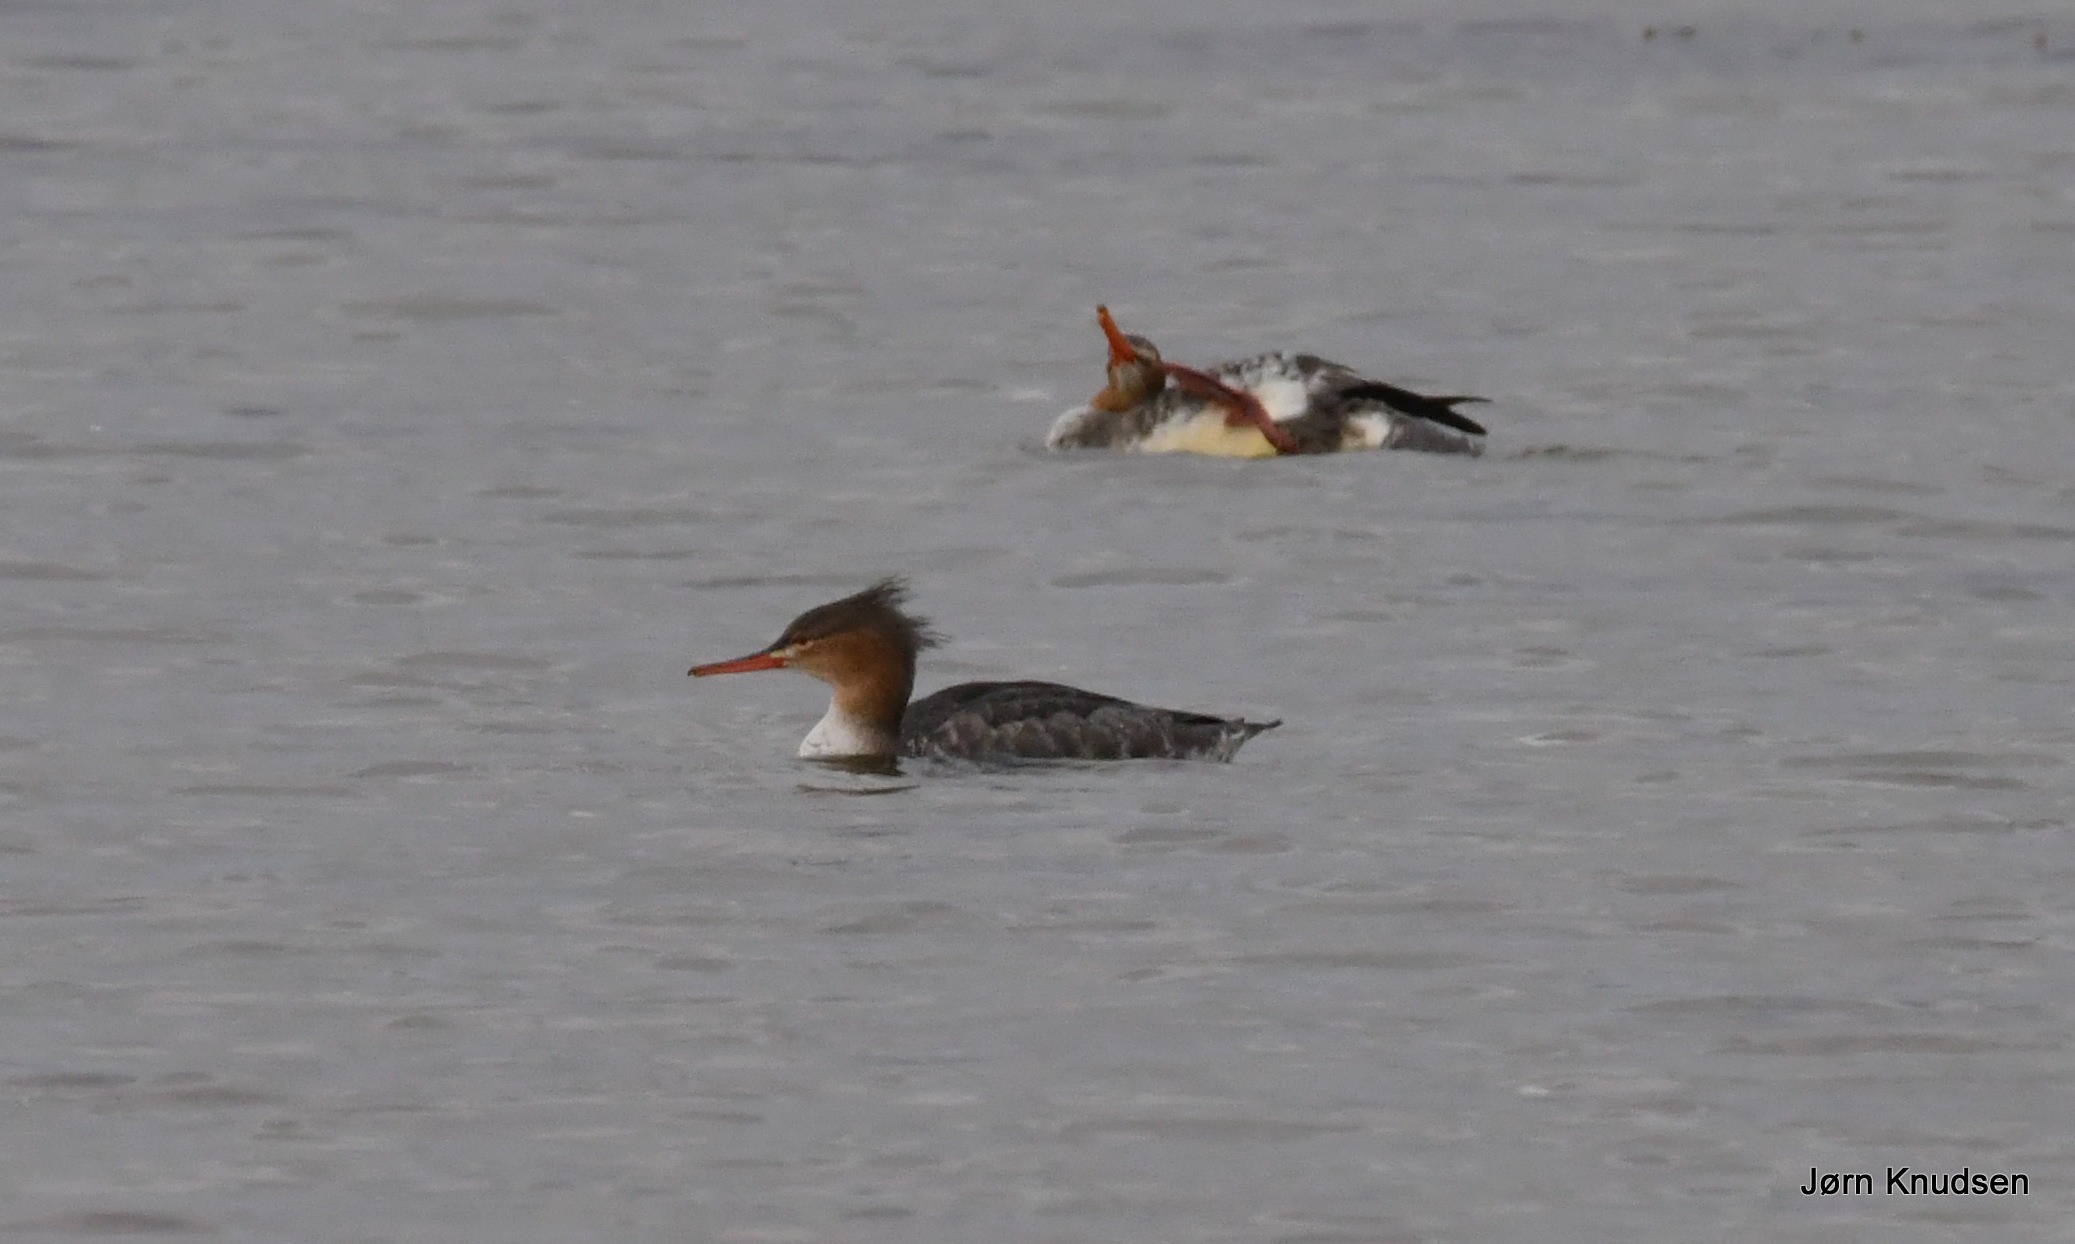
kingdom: Animalia
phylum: Chordata
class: Aves
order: Anseriformes
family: Anatidae
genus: Mergus
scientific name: Mergus serrator
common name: Toppet skallesluger
